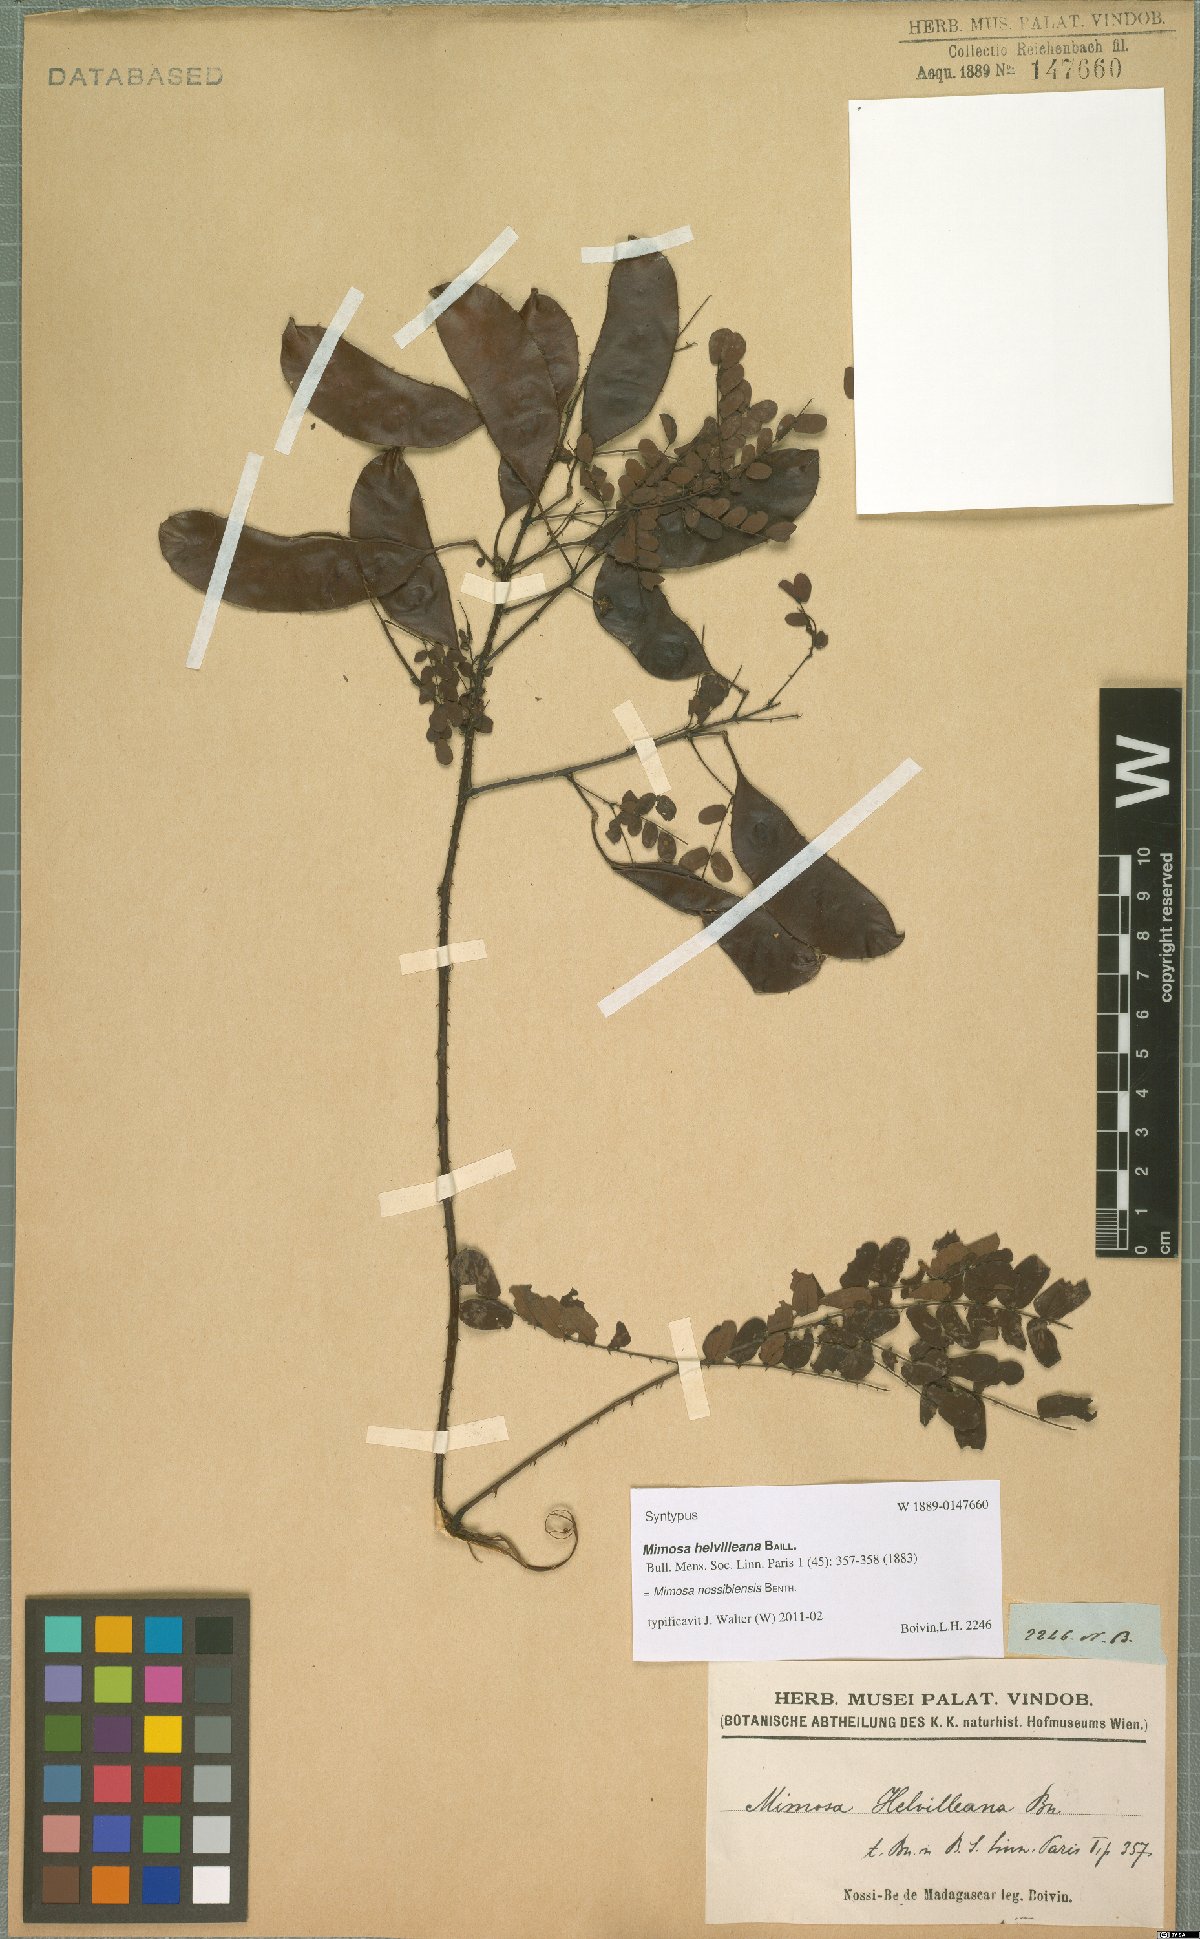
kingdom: Plantae
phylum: Tracheophyta
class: Magnoliopsida
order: Fabales
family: Fabaceae
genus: Mimosa
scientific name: Mimosa nossibiensis
